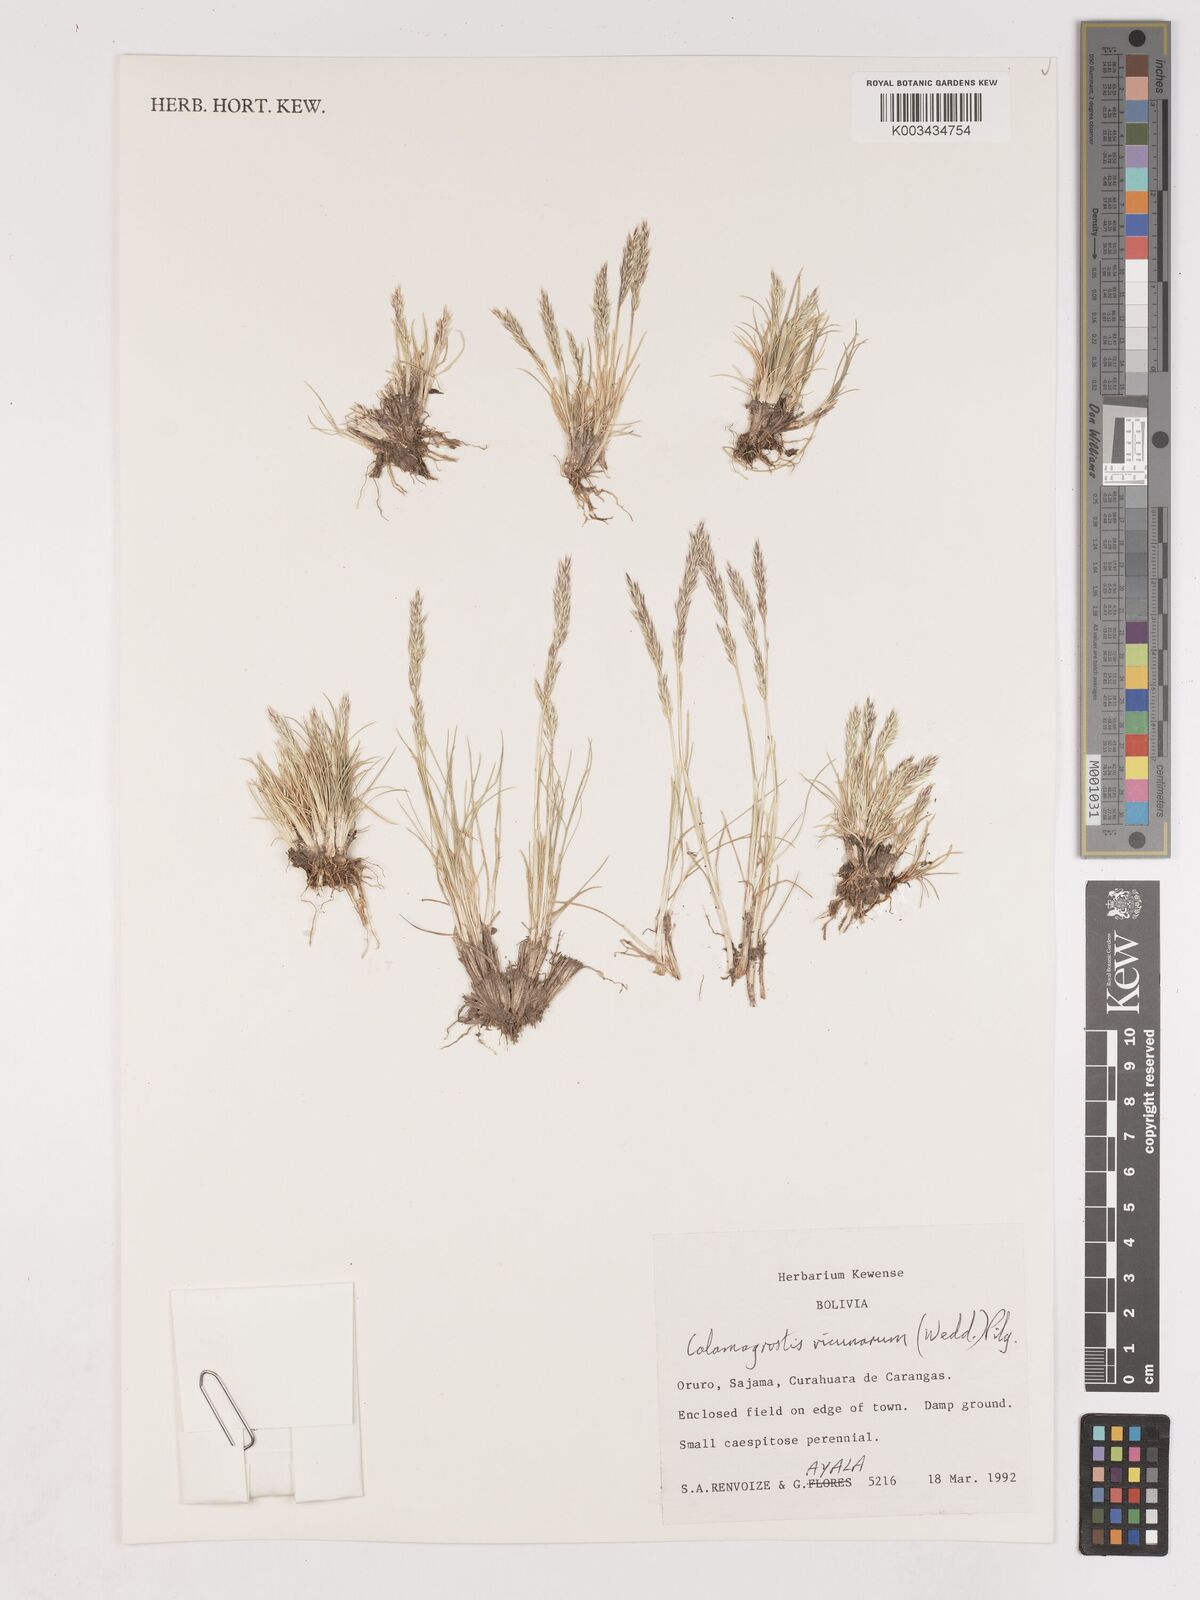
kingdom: Plantae
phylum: Tracheophyta
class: Liliopsida
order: Poales
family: Poaceae
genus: Cinnagrostis
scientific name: Cinnagrostis vicunarum
